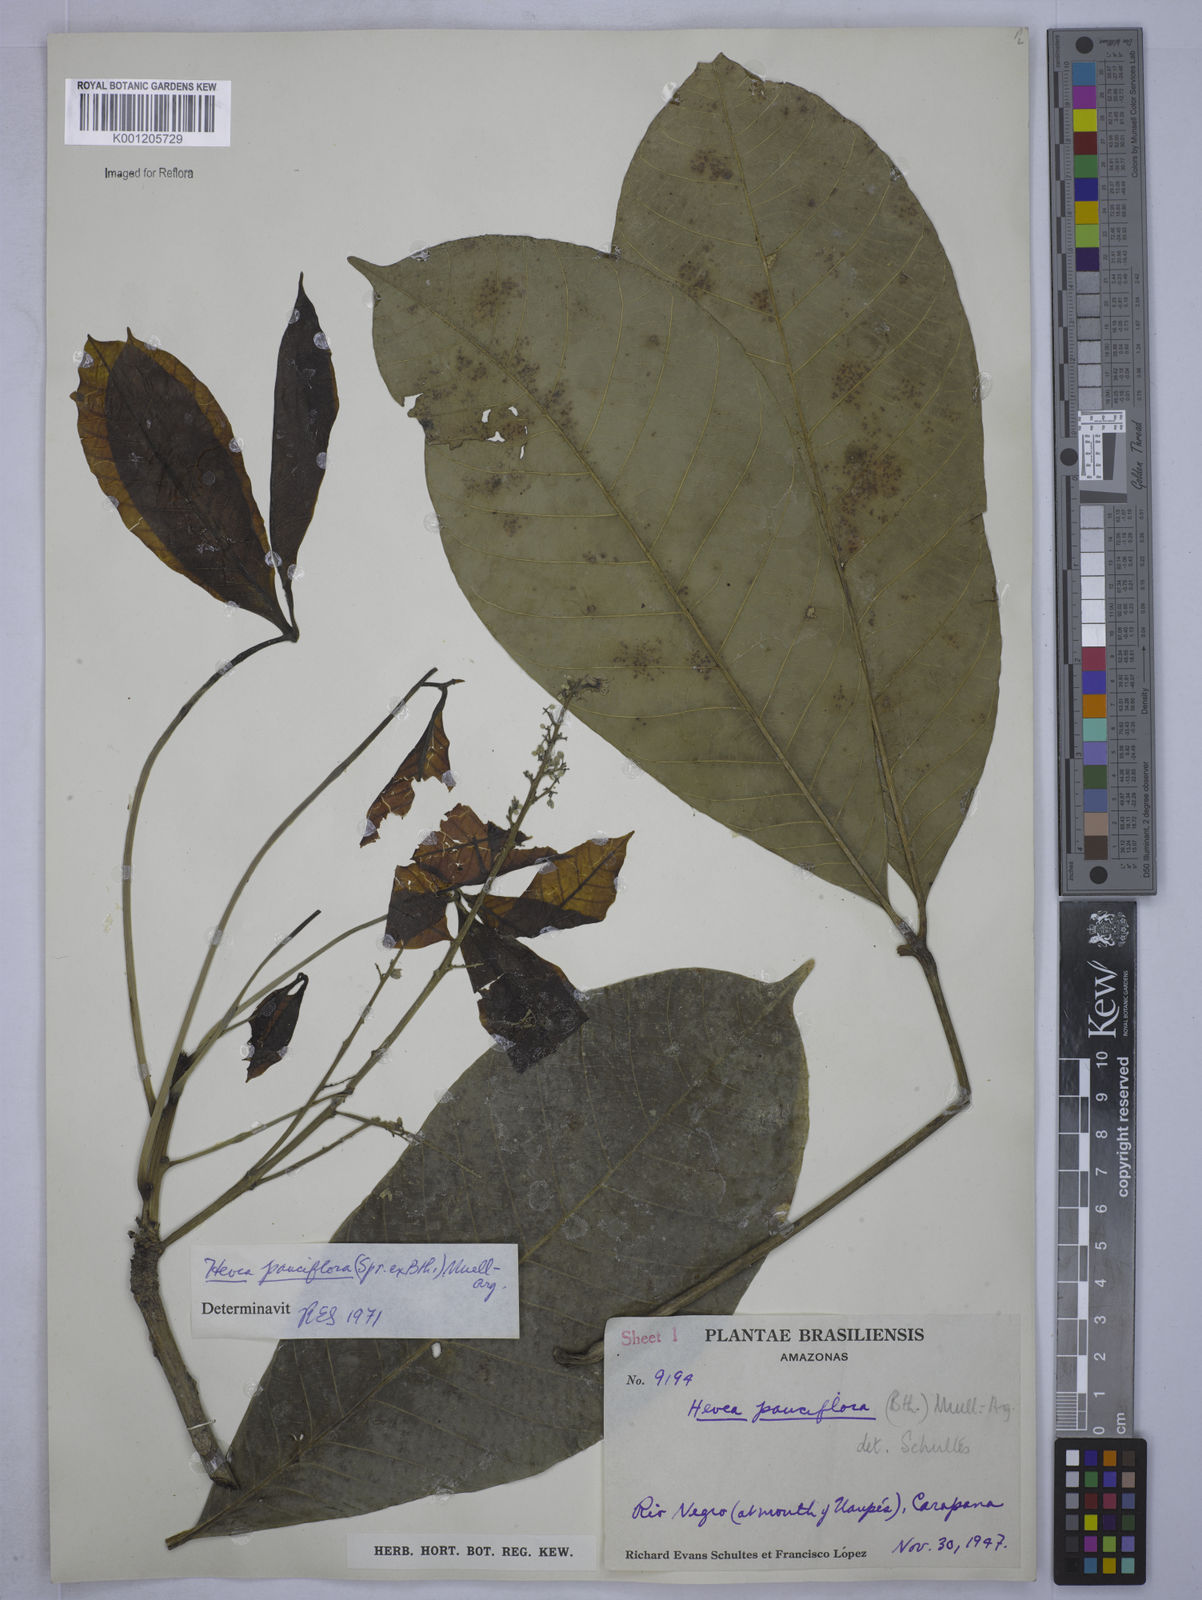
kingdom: Plantae
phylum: Tracheophyta
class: Magnoliopsida
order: Malpighiales
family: Euphorbiaceae
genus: Hevea
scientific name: Hevea
